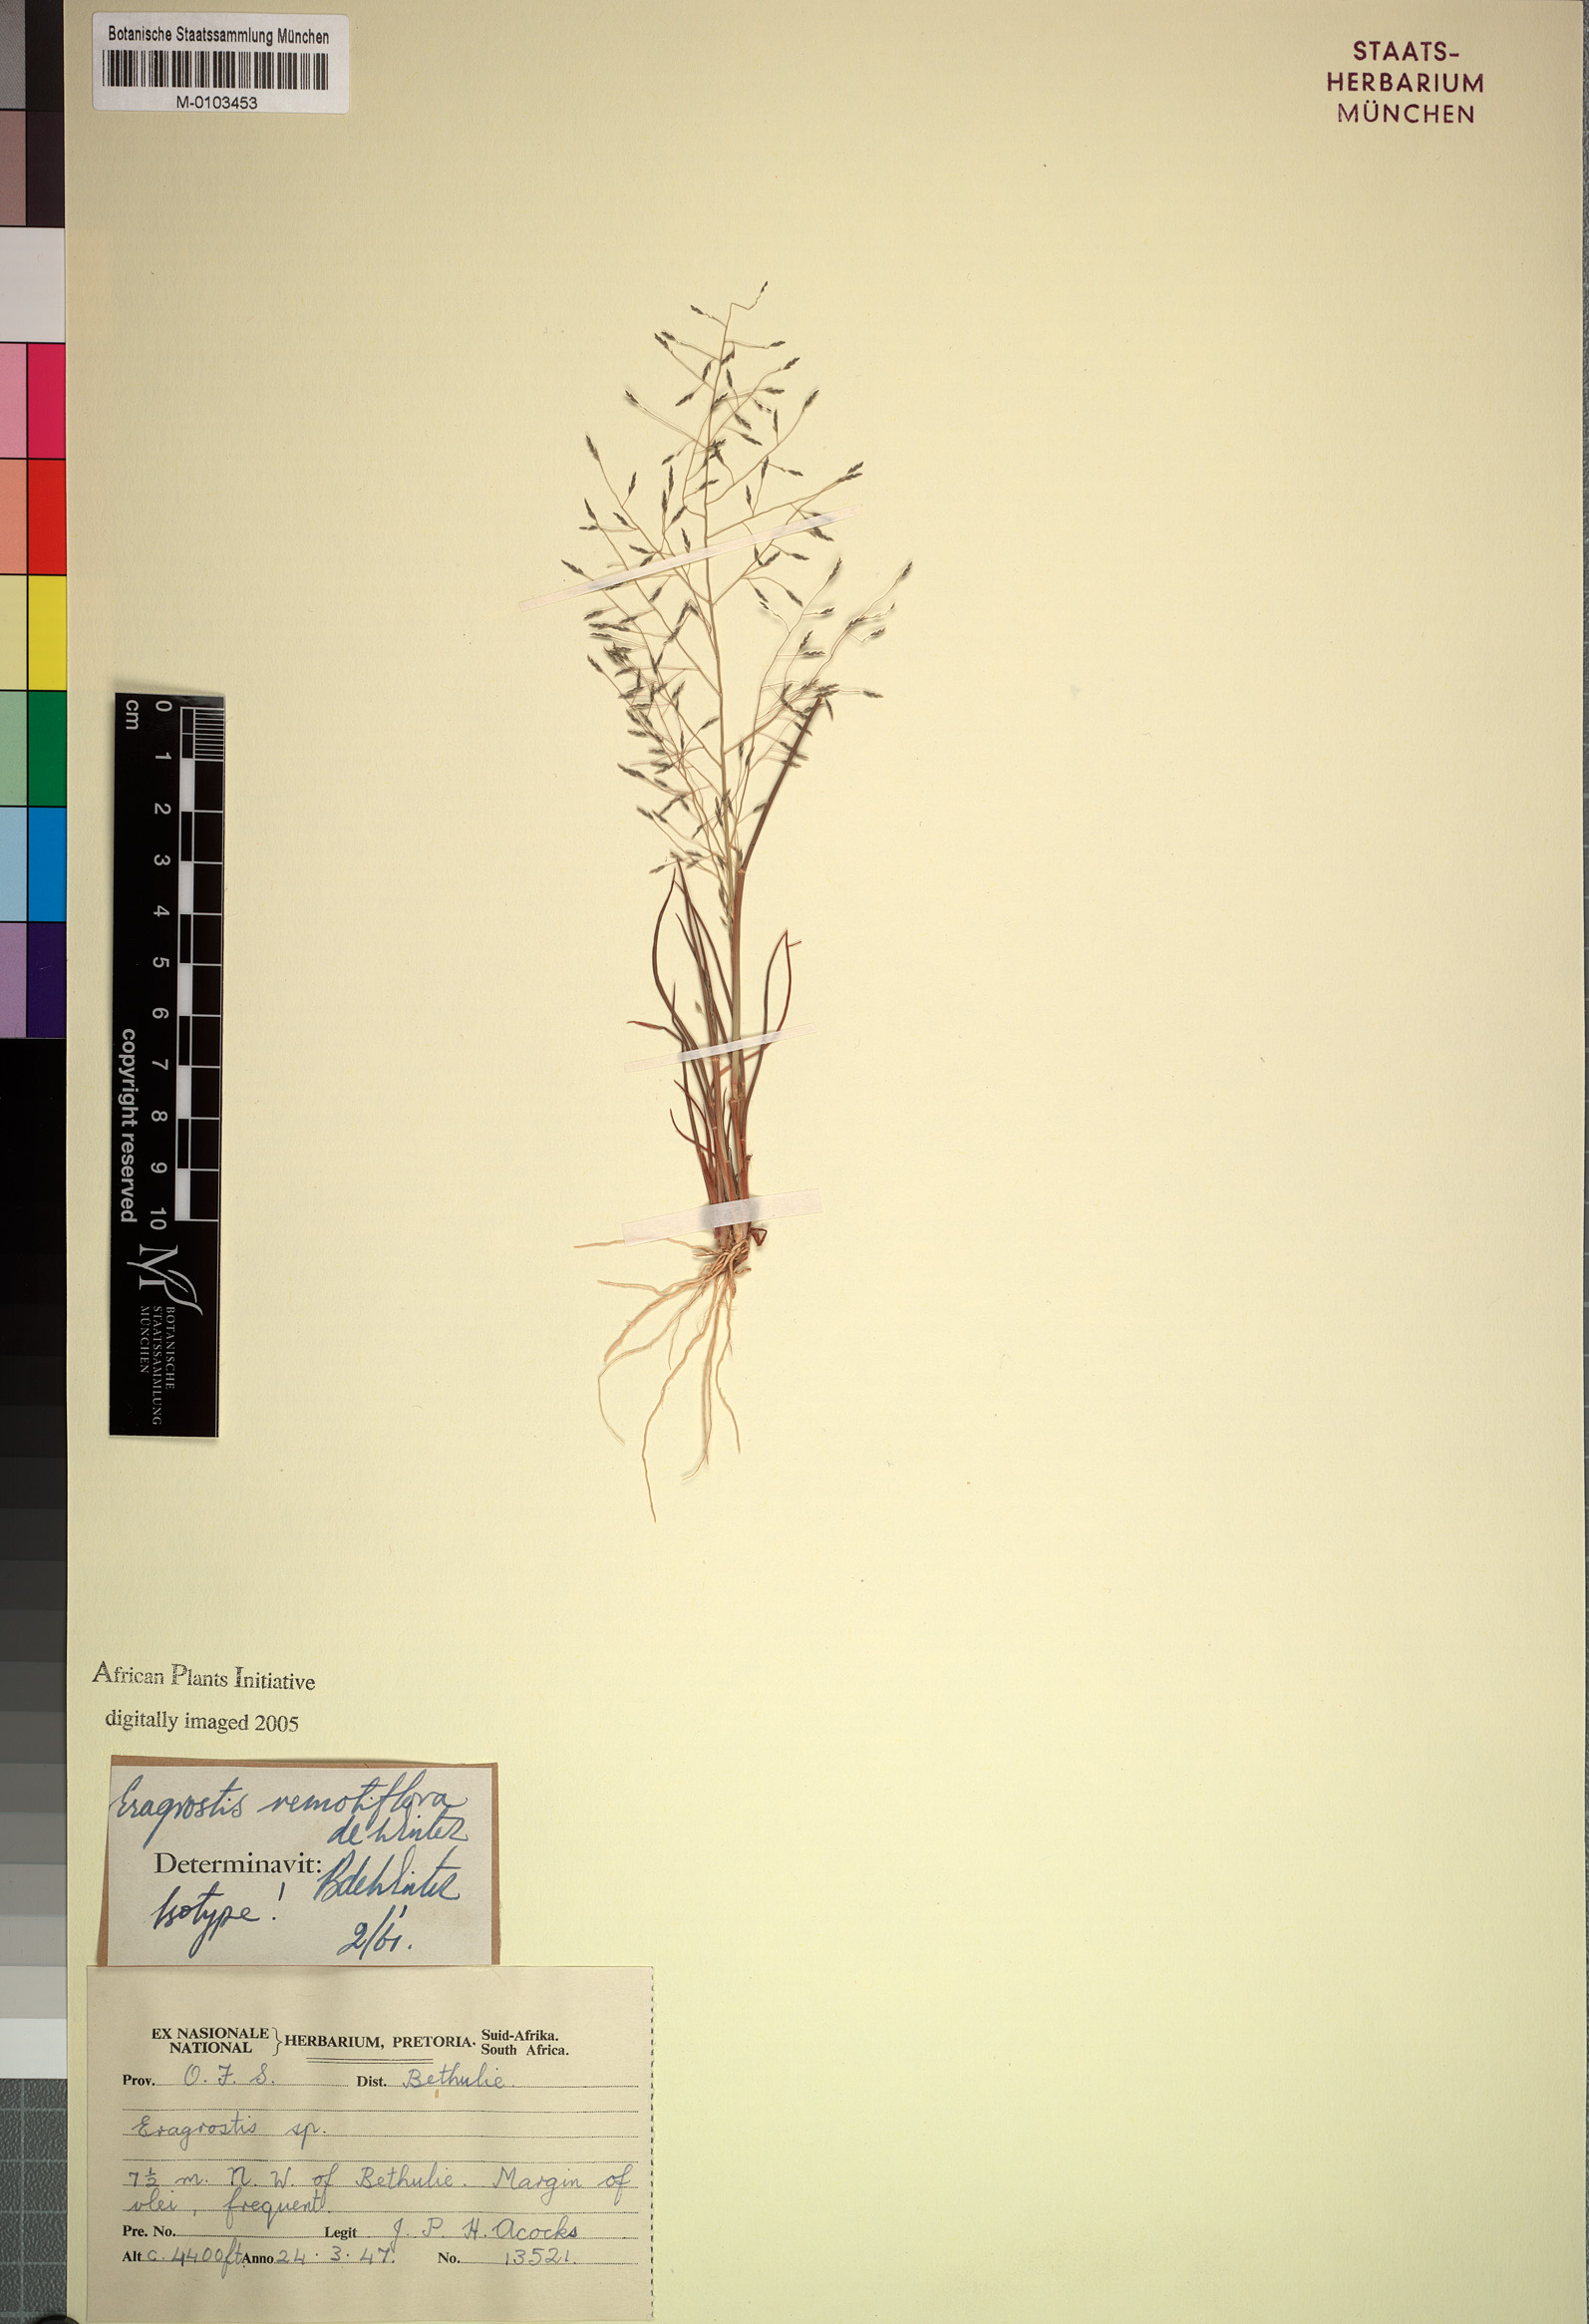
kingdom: Plantae
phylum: Tracheophyta
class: Liliopsida
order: Poales
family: Poaceae
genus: Eragrostis
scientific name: Eragrostis remotiflora
